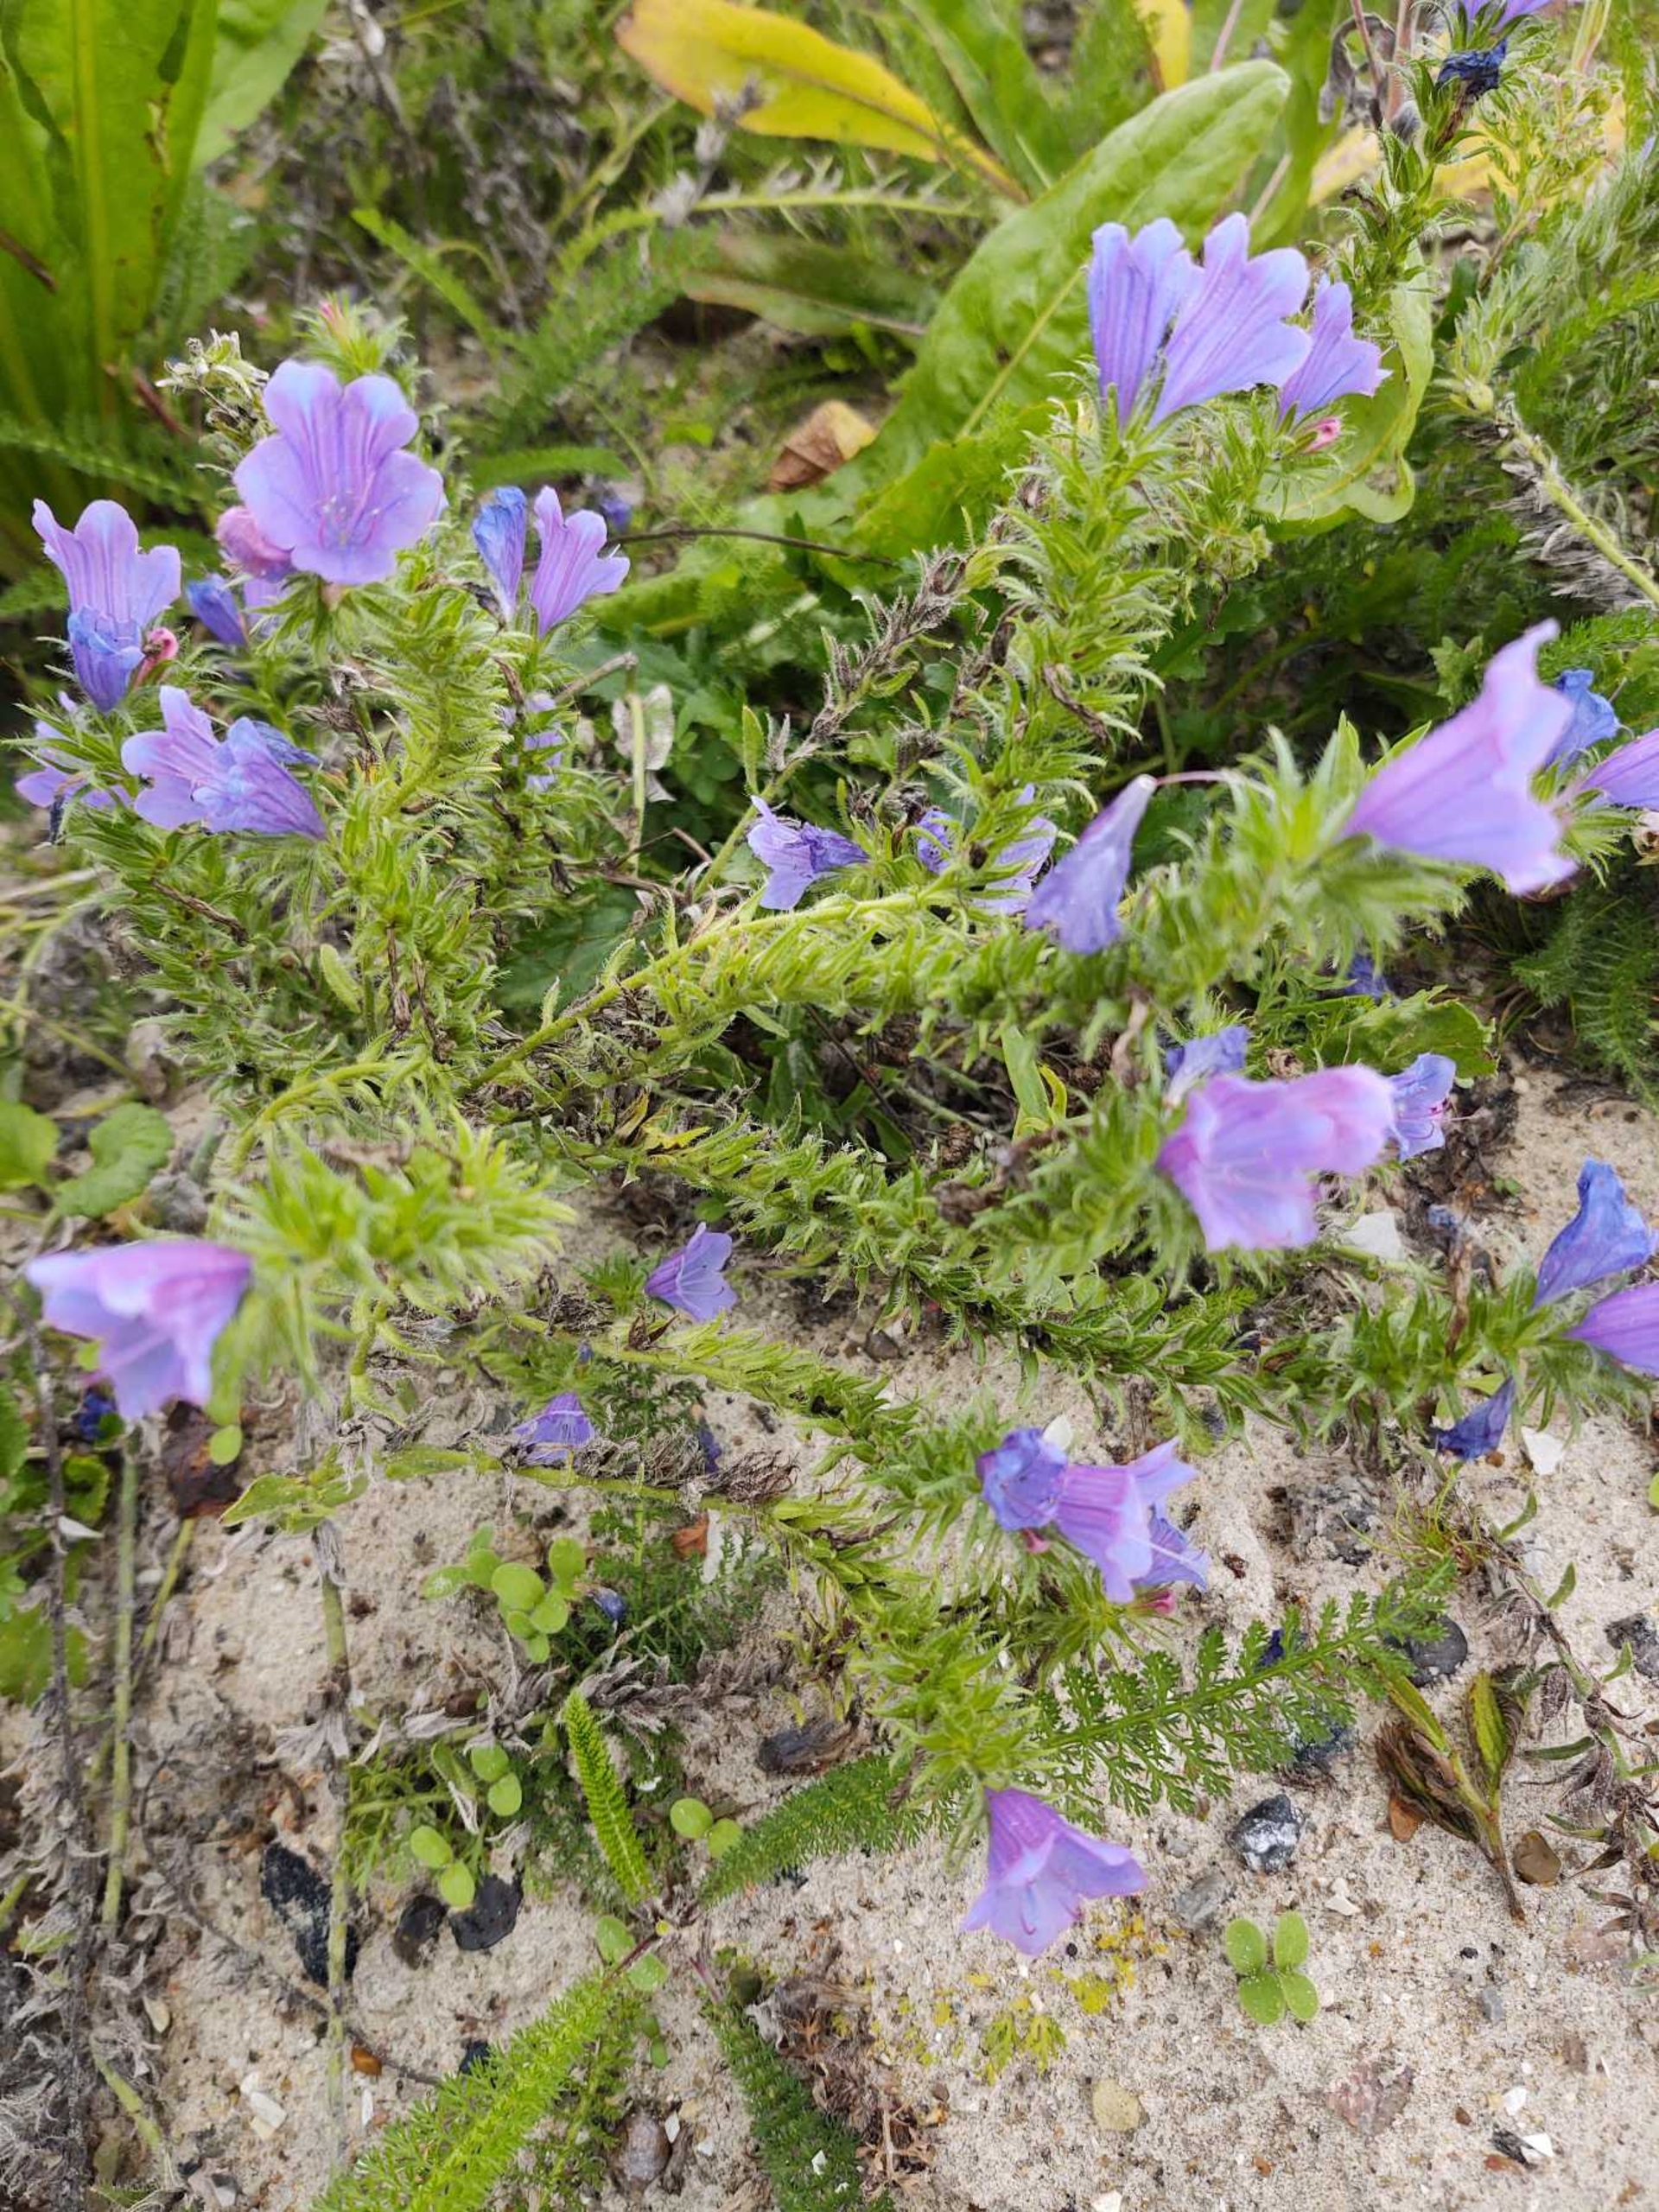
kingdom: Plantae
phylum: Tracheophyta
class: Magnoliopsida
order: Boraginales
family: Boraginaceae
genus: Echium
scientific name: Echium plantagineum
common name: Vejbred-slangehoved
